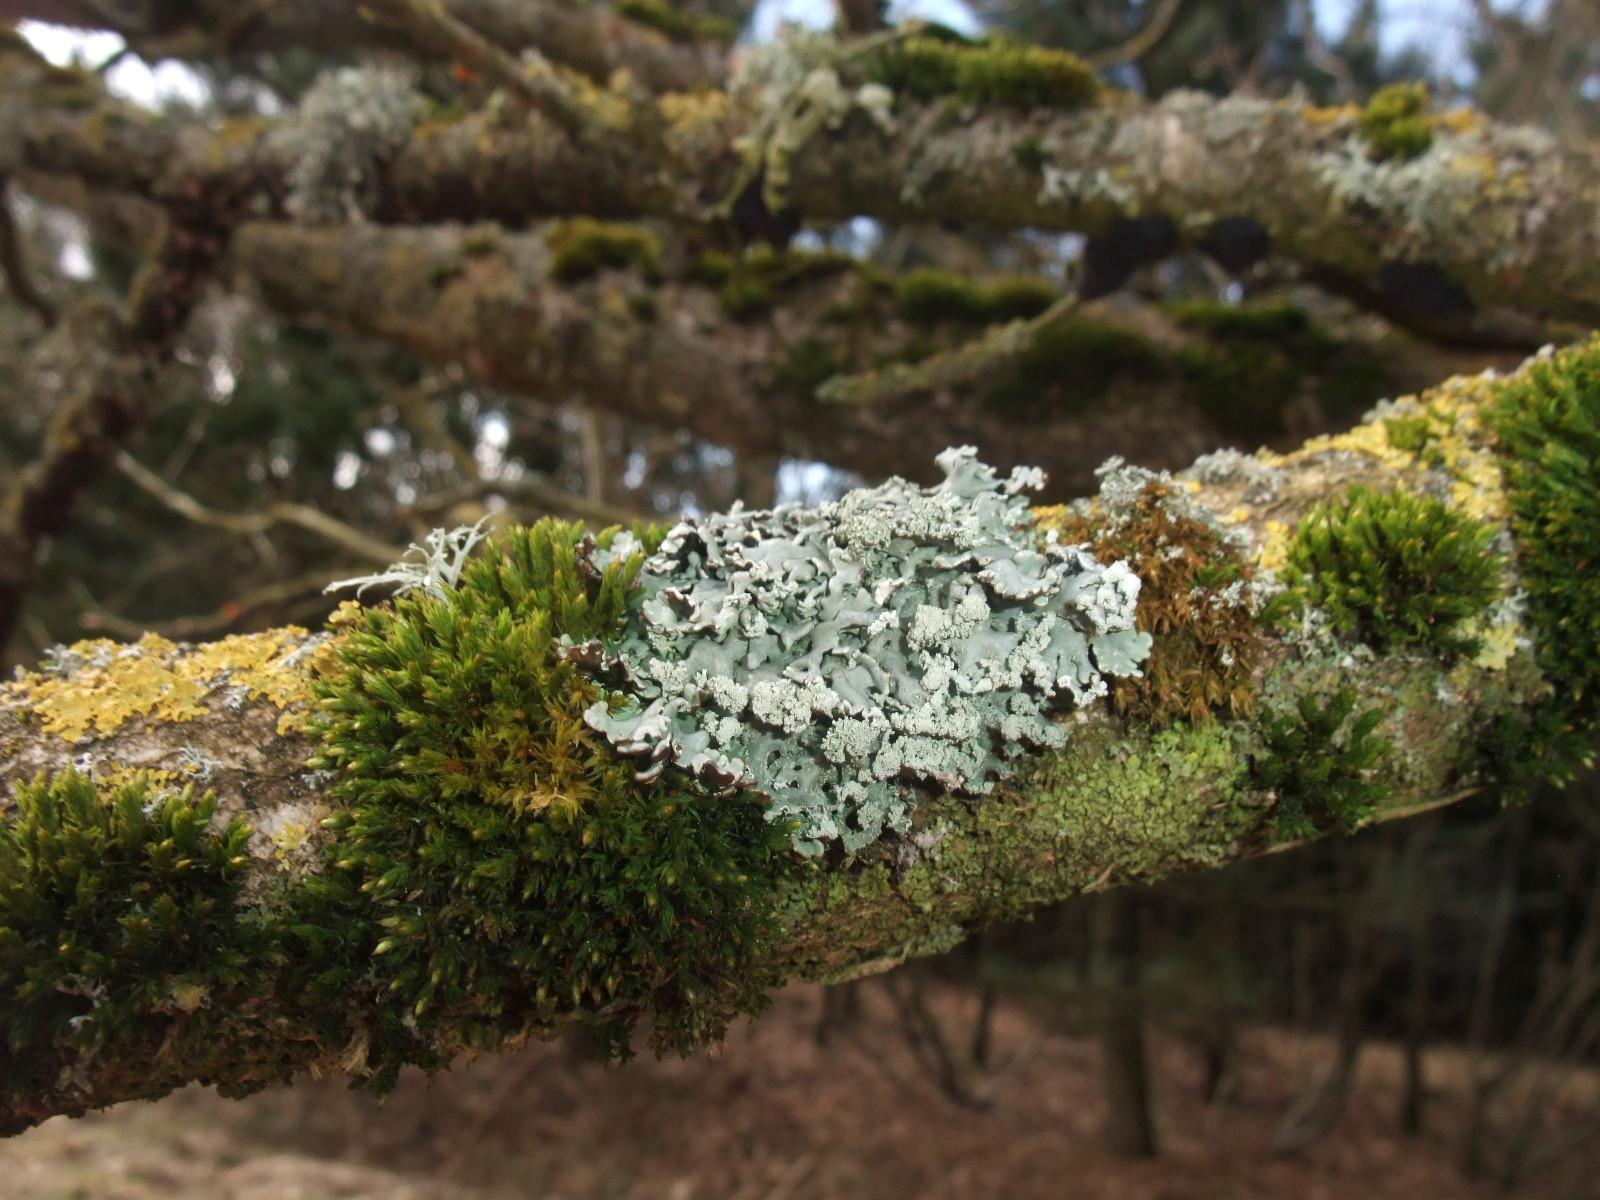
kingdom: Fungi
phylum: Ascomycota
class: Lecanoromycetes
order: Lecanorales
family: Parmeliaceae
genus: Hypogymnia
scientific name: Hypogymnia physodes
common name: almindelig kvistlav
